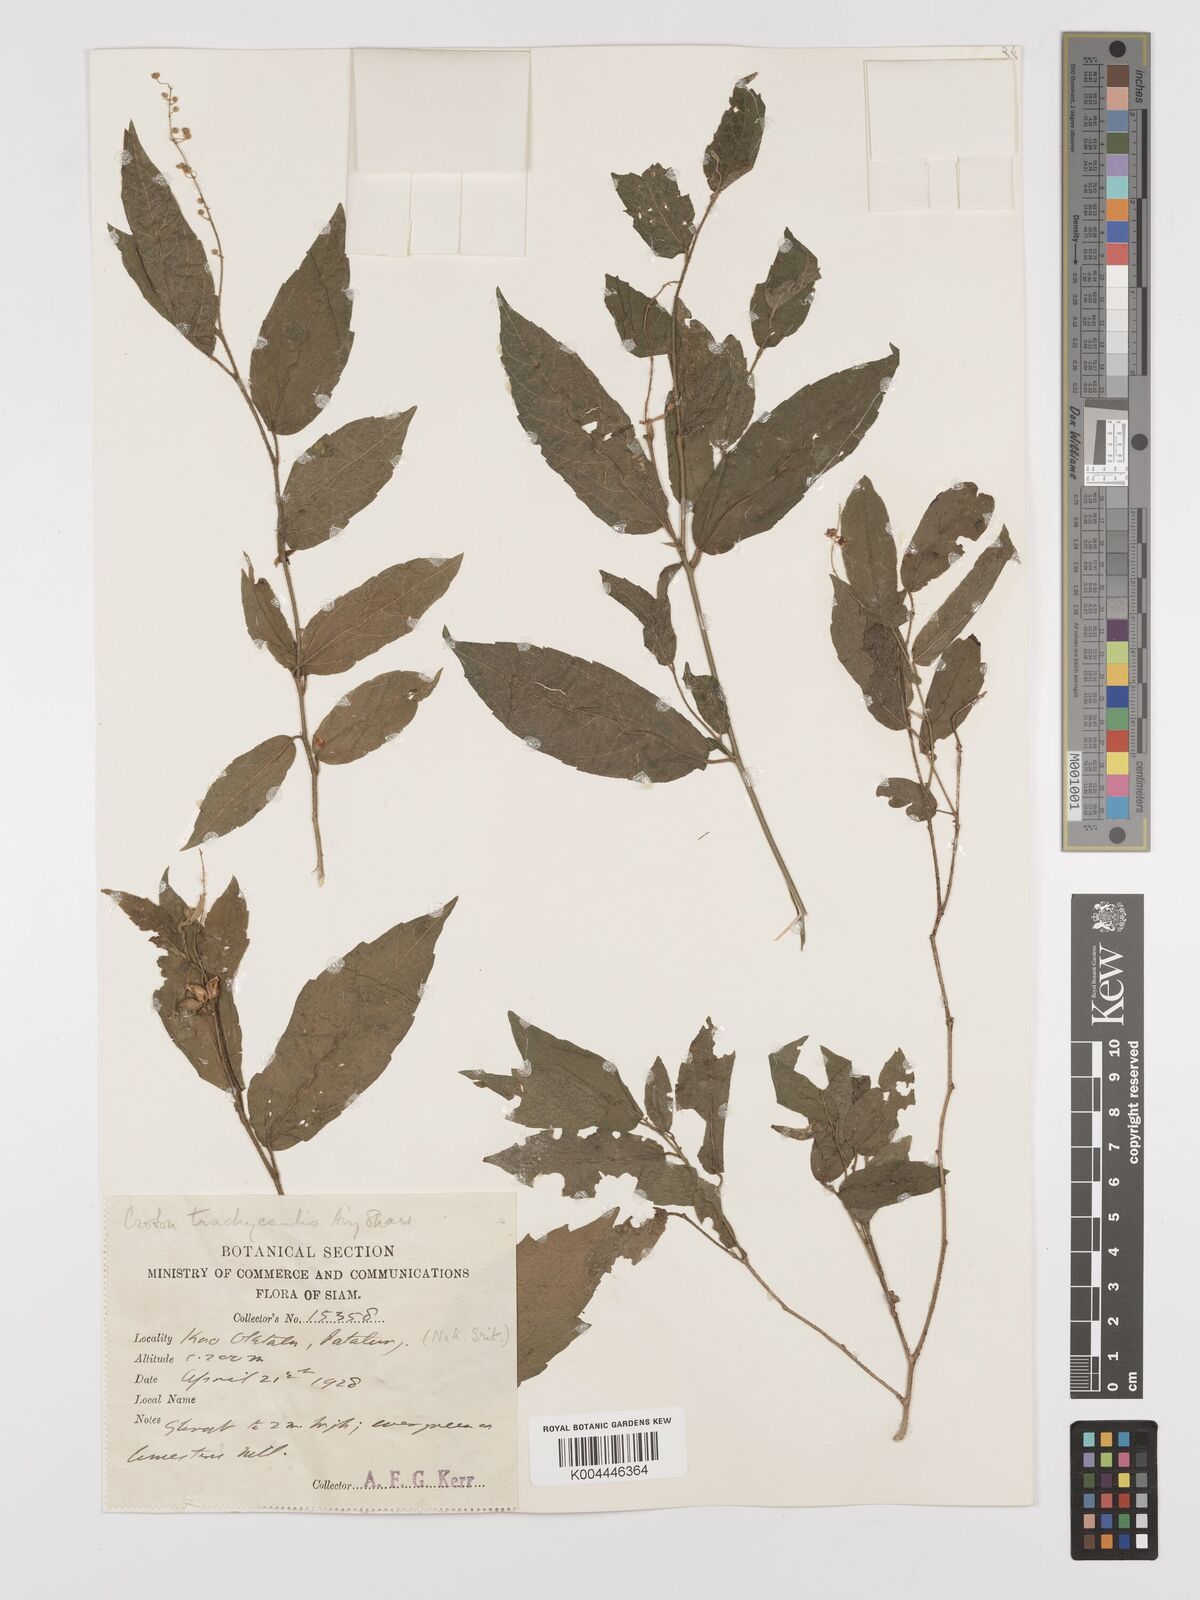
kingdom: Plantae
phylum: Tracheophyta
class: Magnoliopsida
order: Malpighiales
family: Euphorbiaceae
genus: Croton
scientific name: Croton lachnocarpus
